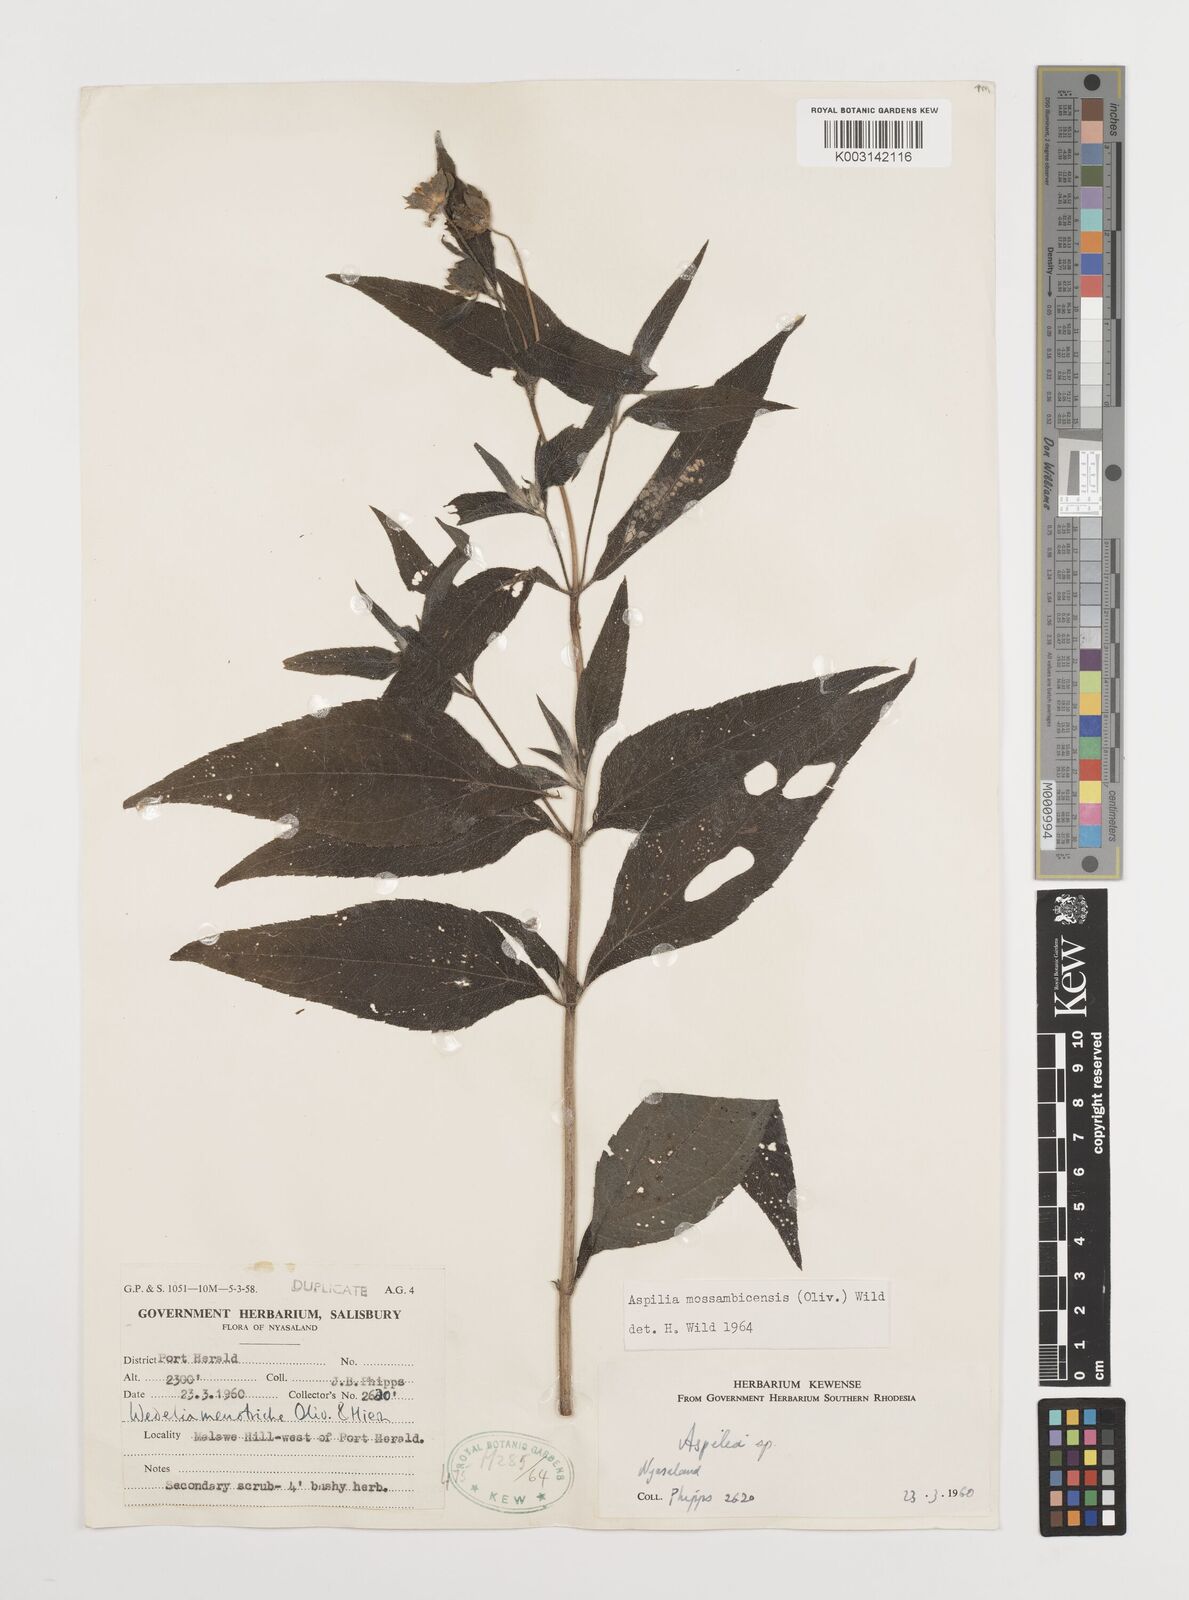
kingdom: Plantae
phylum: Tracheophyta
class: Magnoliopsida
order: Asterales
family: Asteraceae
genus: Aspilia
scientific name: Aspilia mossambicensis
